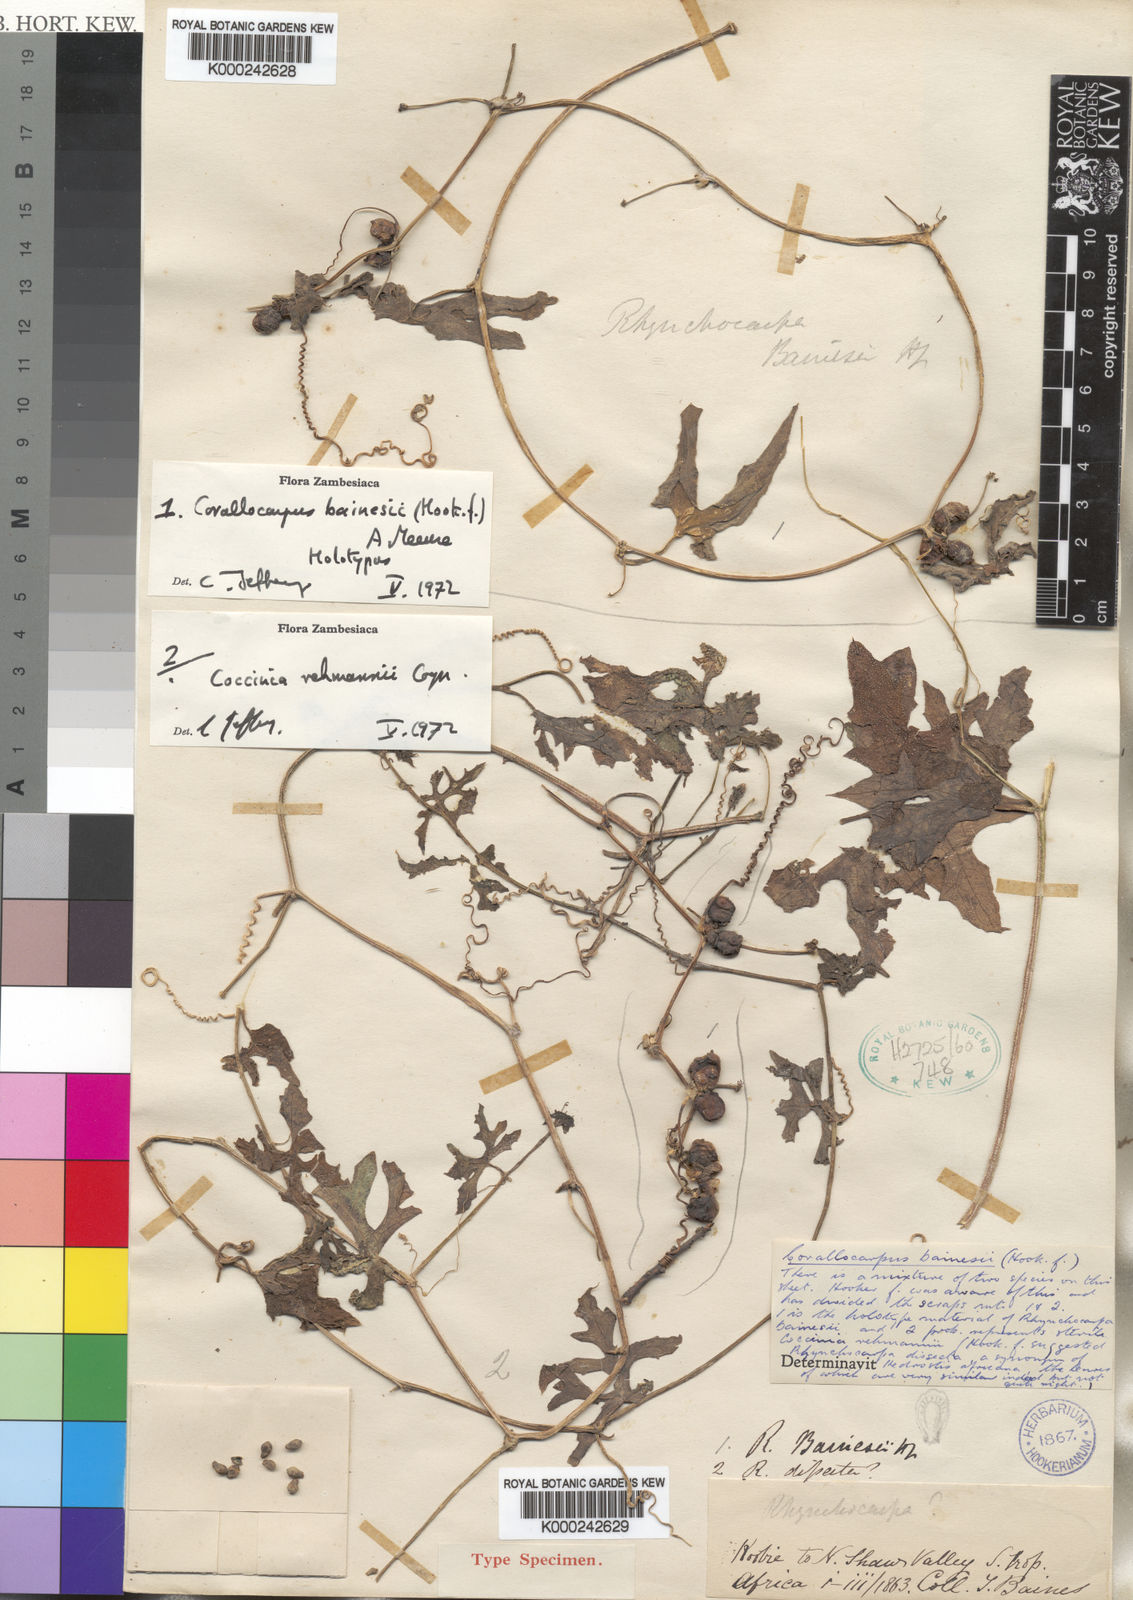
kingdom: Plantae
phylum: Tracheophyta
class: Magnoliopsida
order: Cucurbitales
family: Cucurbitaceae
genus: Corallocarpus
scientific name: Corallocarpus bainesii
